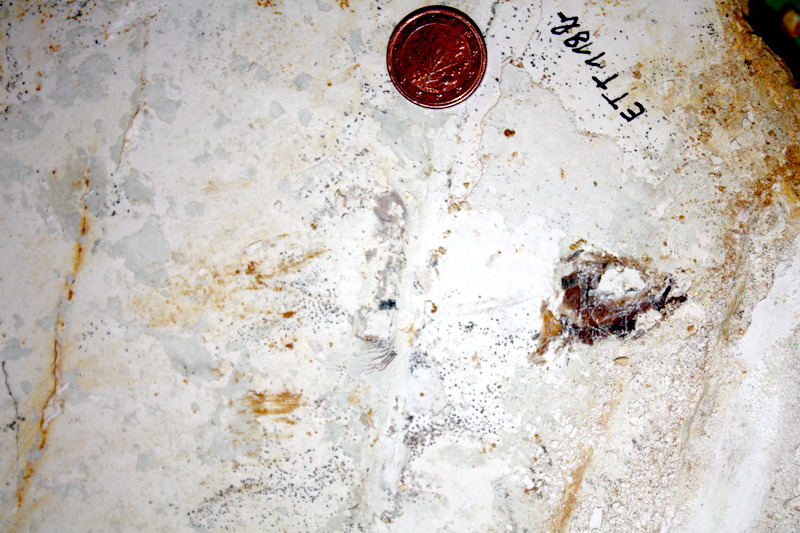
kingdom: Animalia
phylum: Chordata
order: Salmoniformes
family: Orthogonikleithridae
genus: Orthogonikleithrus
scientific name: Orthogonikleithrus hoelli
